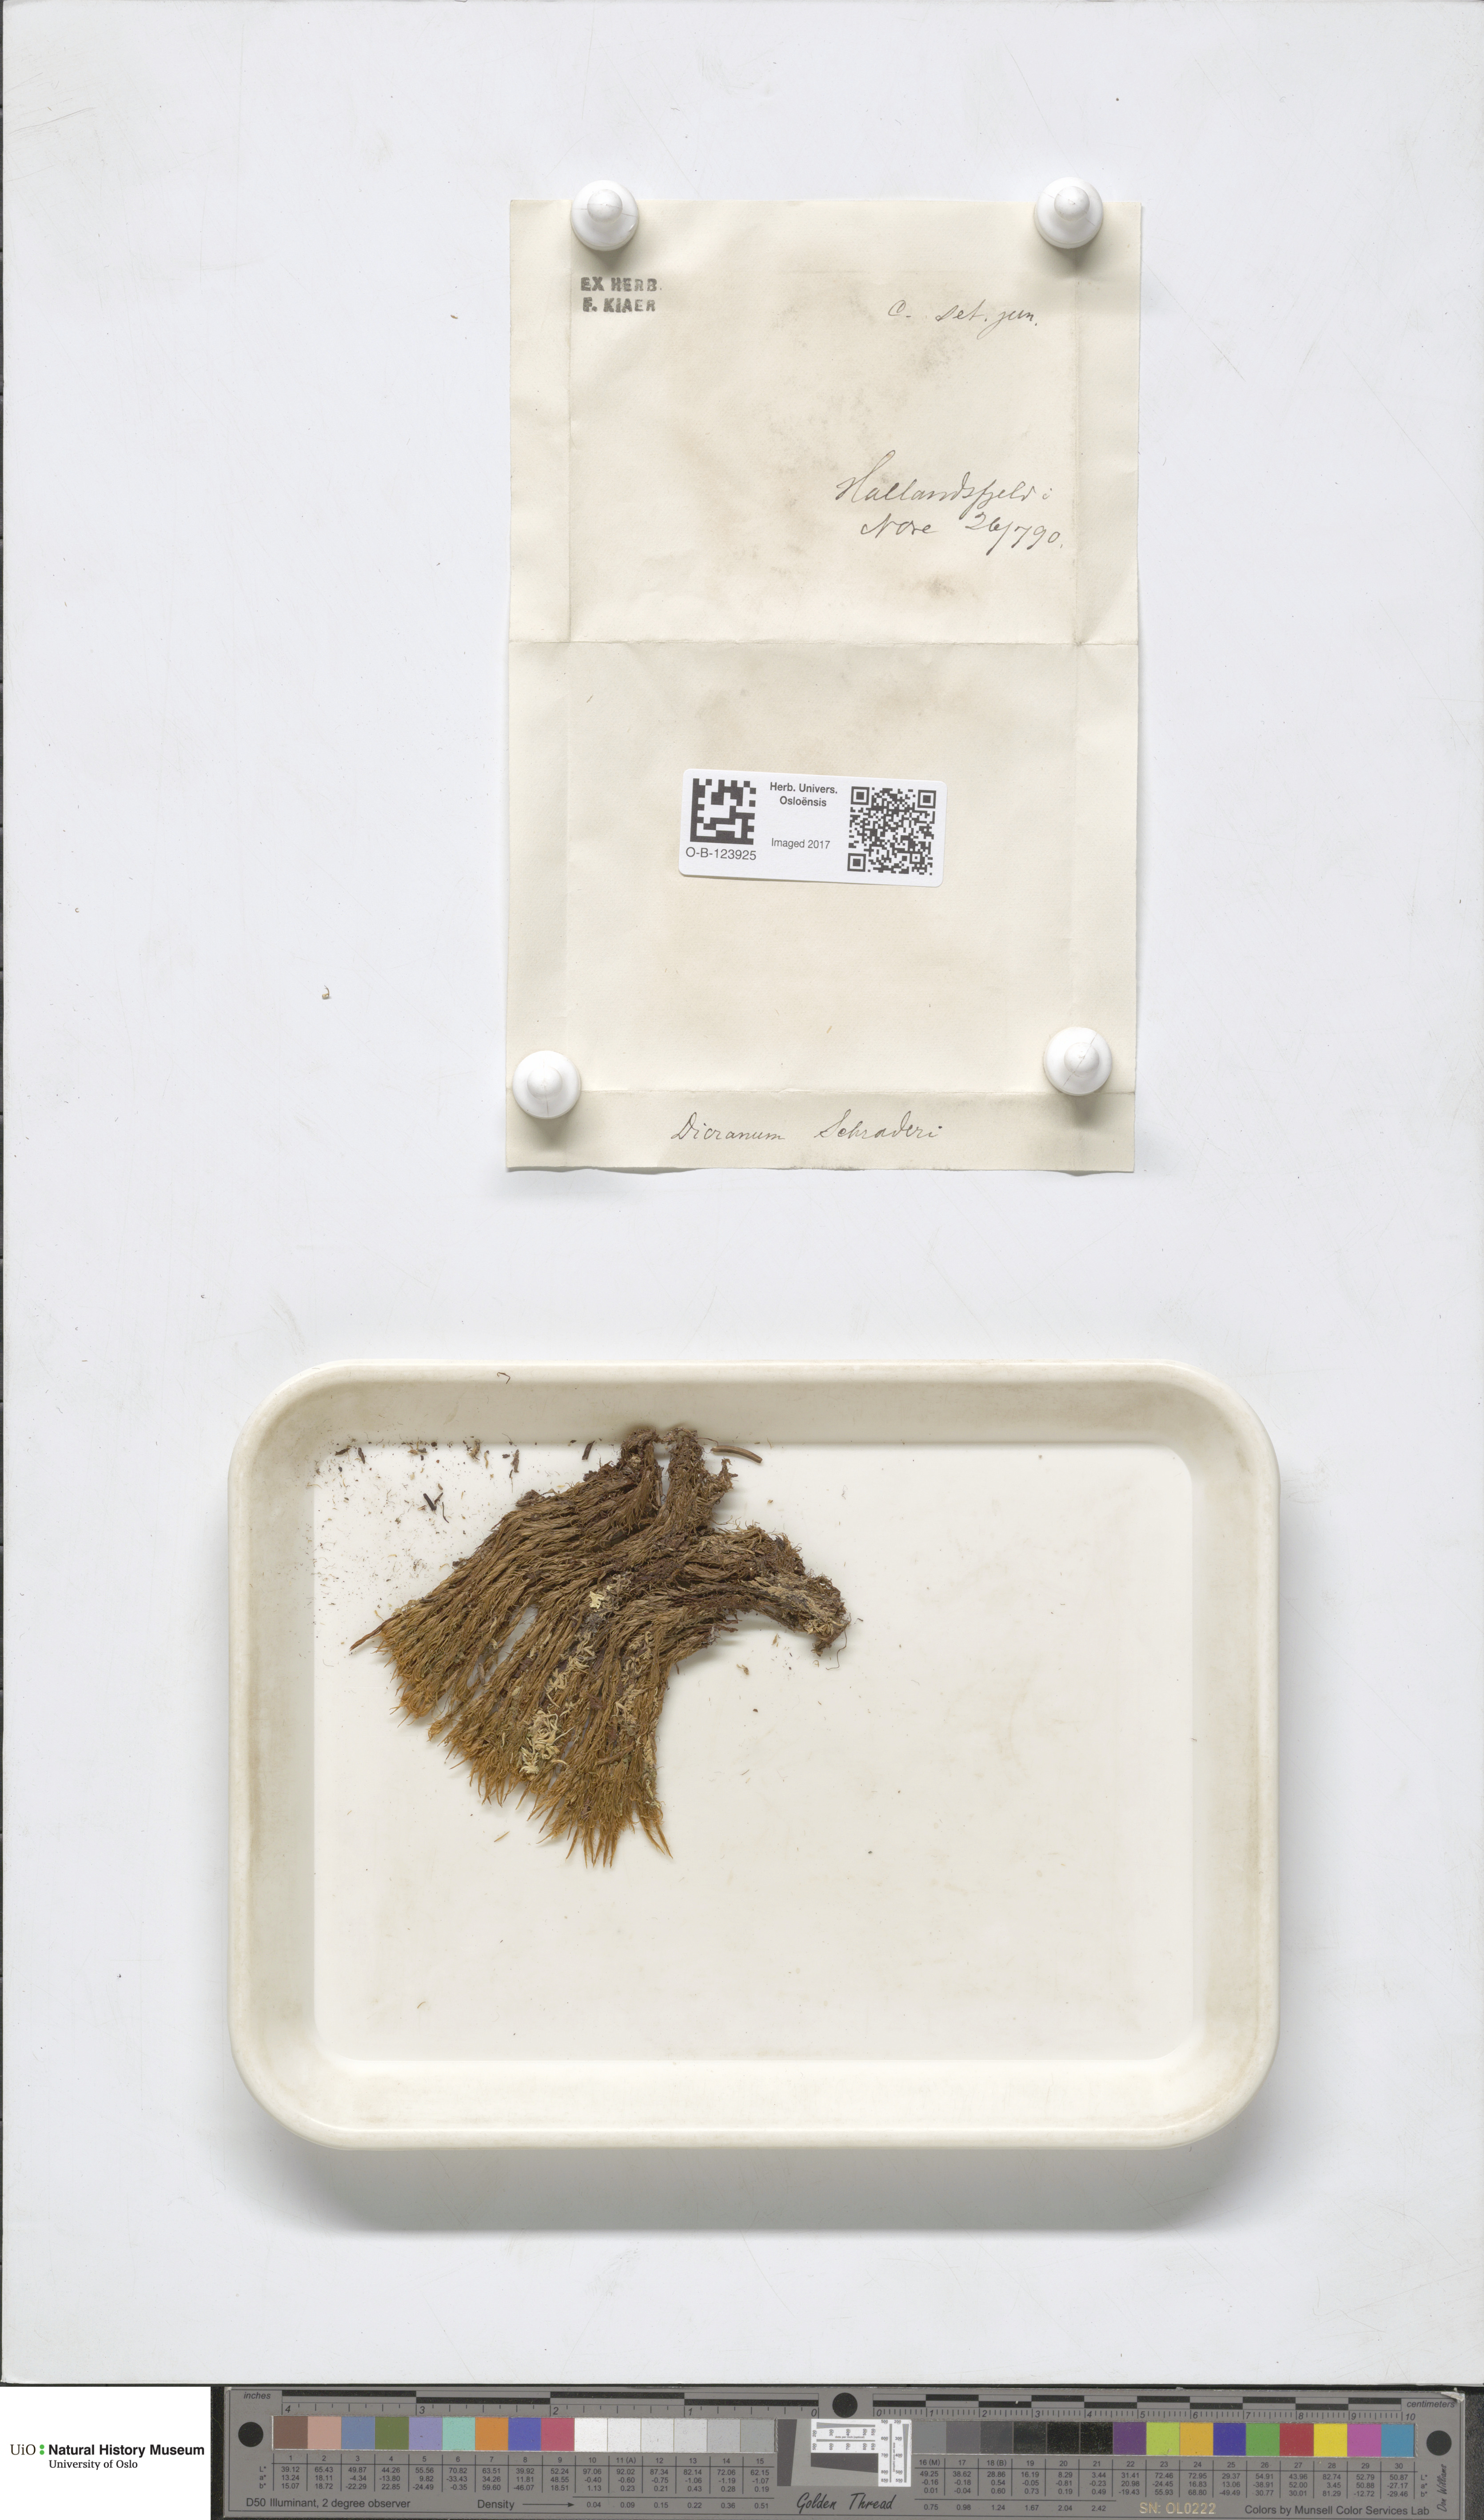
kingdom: Plantae
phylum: Bryophyta
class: Bryopsida
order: Dicranales
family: Dicranaceae
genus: Dicranum
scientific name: Dicranum undulatum
